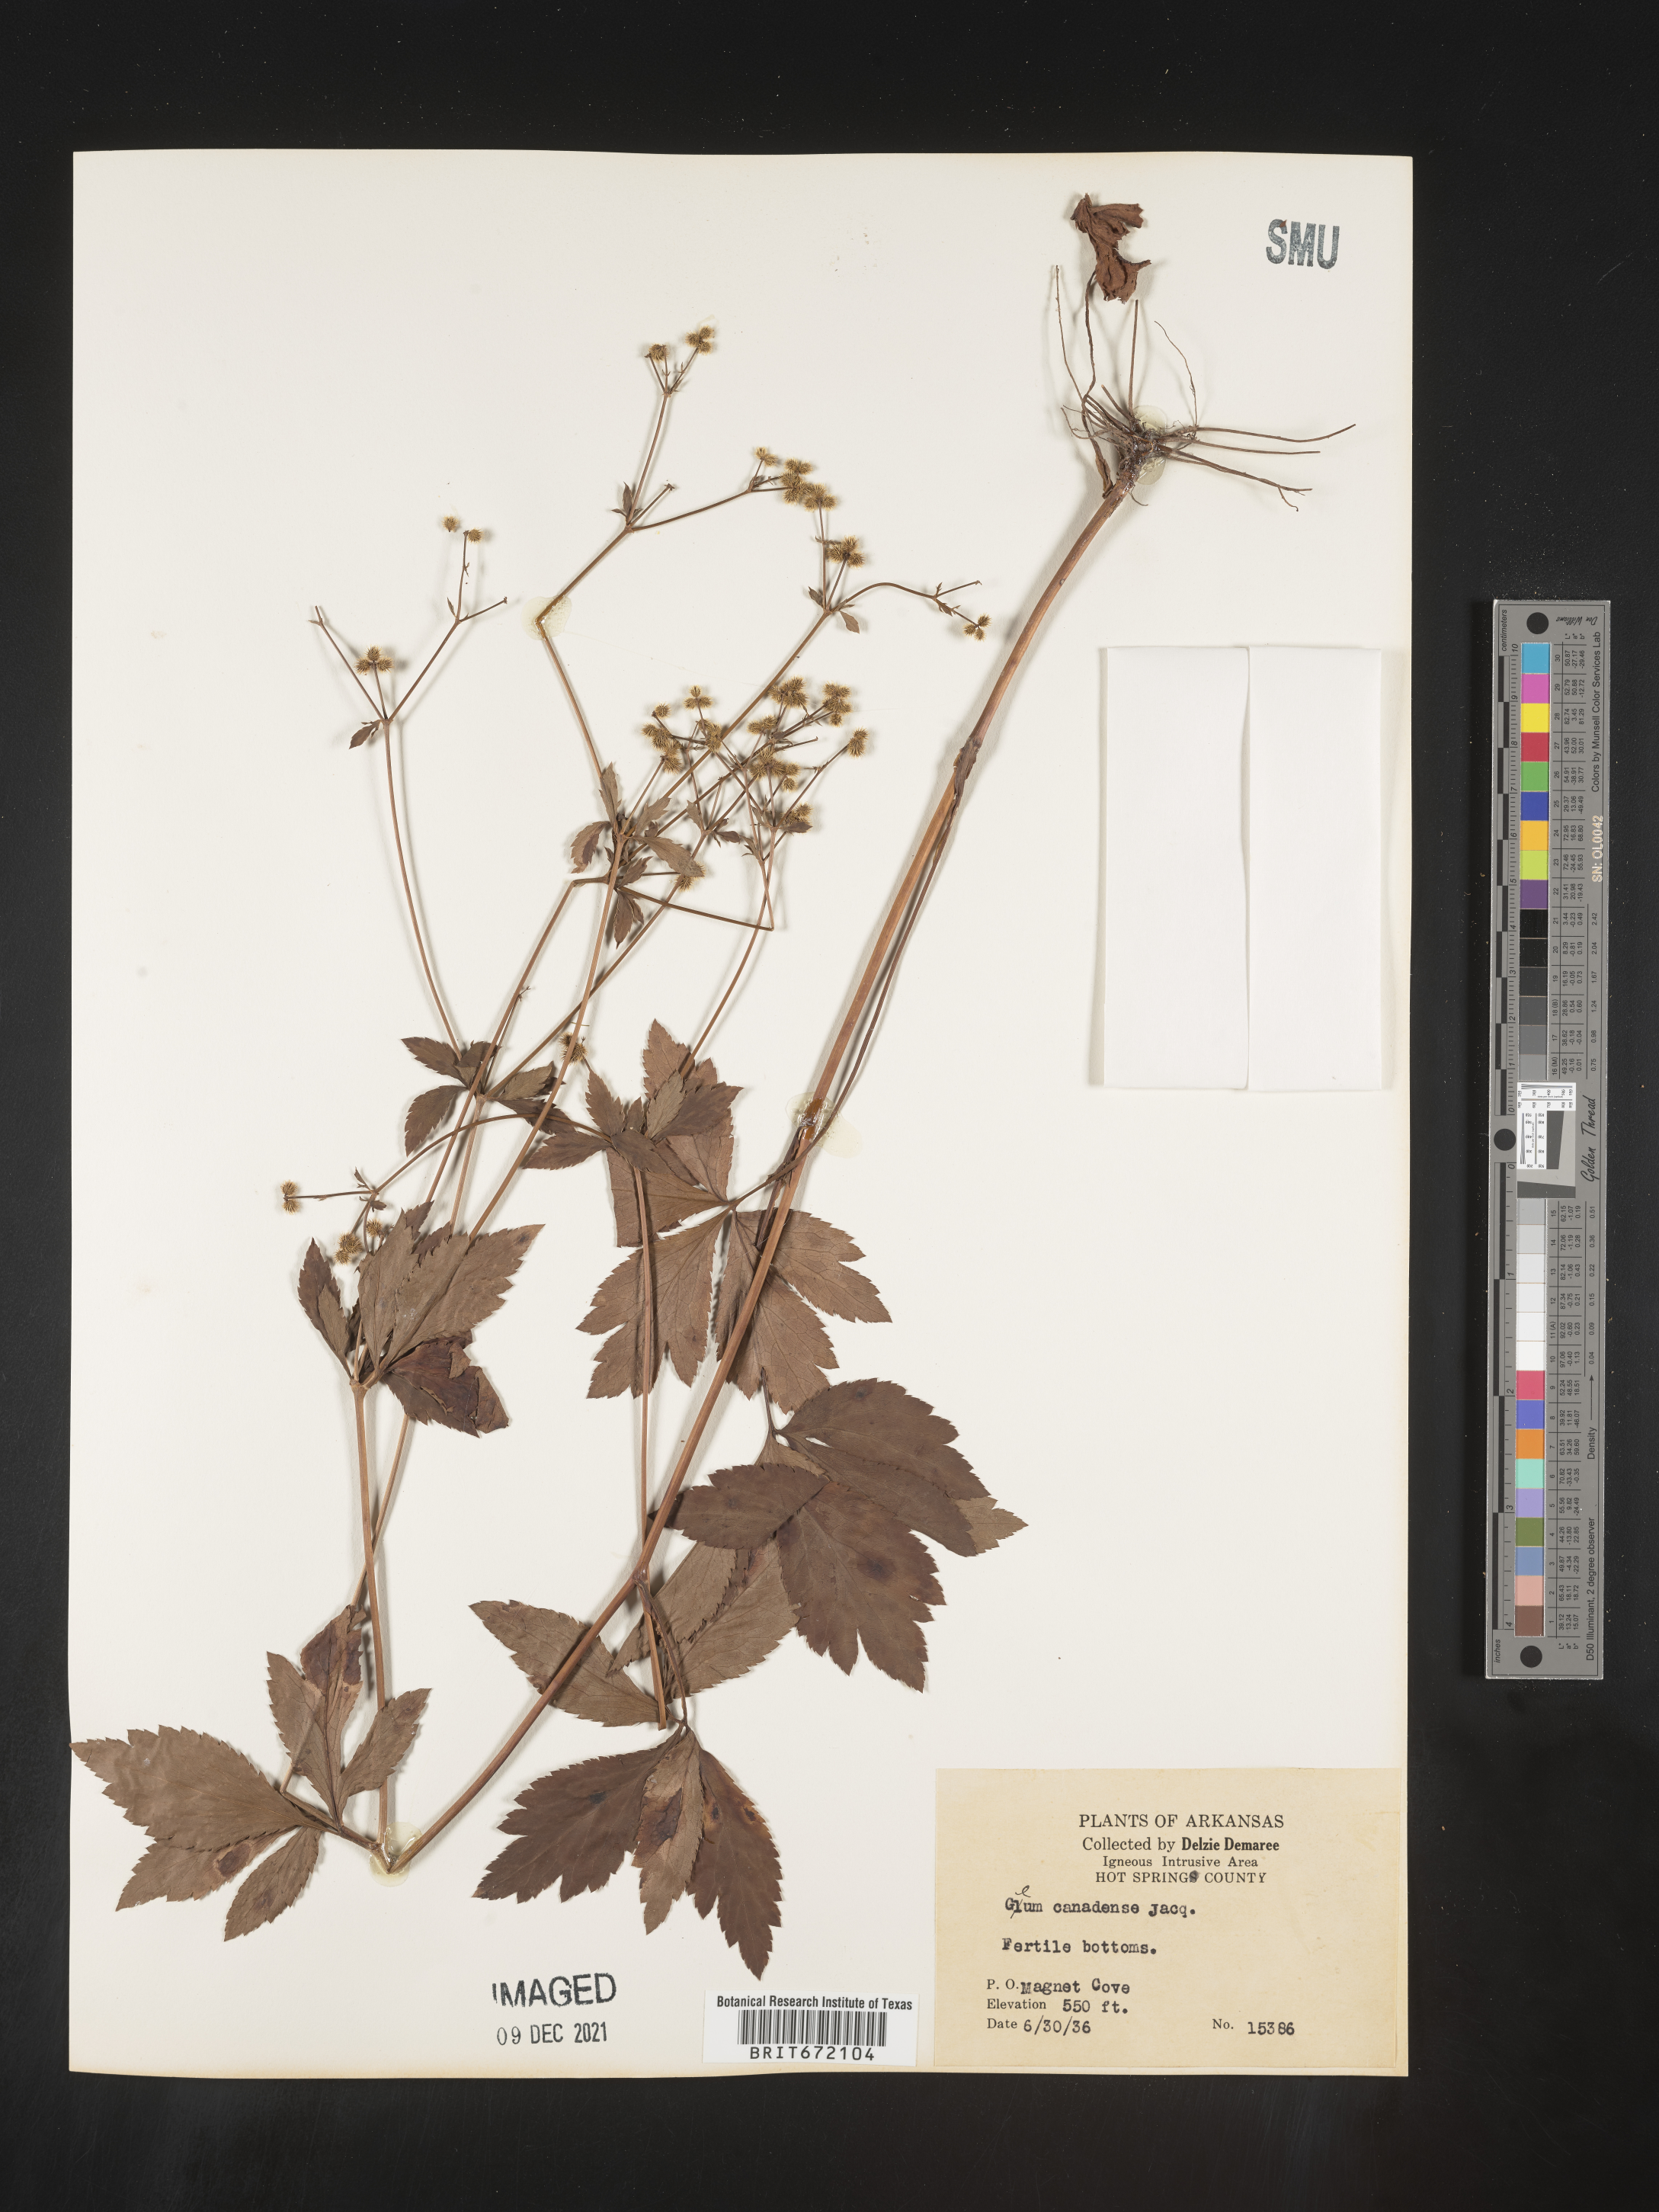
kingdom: Plantae
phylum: Tracheophyta
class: Magnoliopsida
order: Apiales
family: Apiaceae
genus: Sanicula
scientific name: Sanicula canadensis
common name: Canada sanicle
